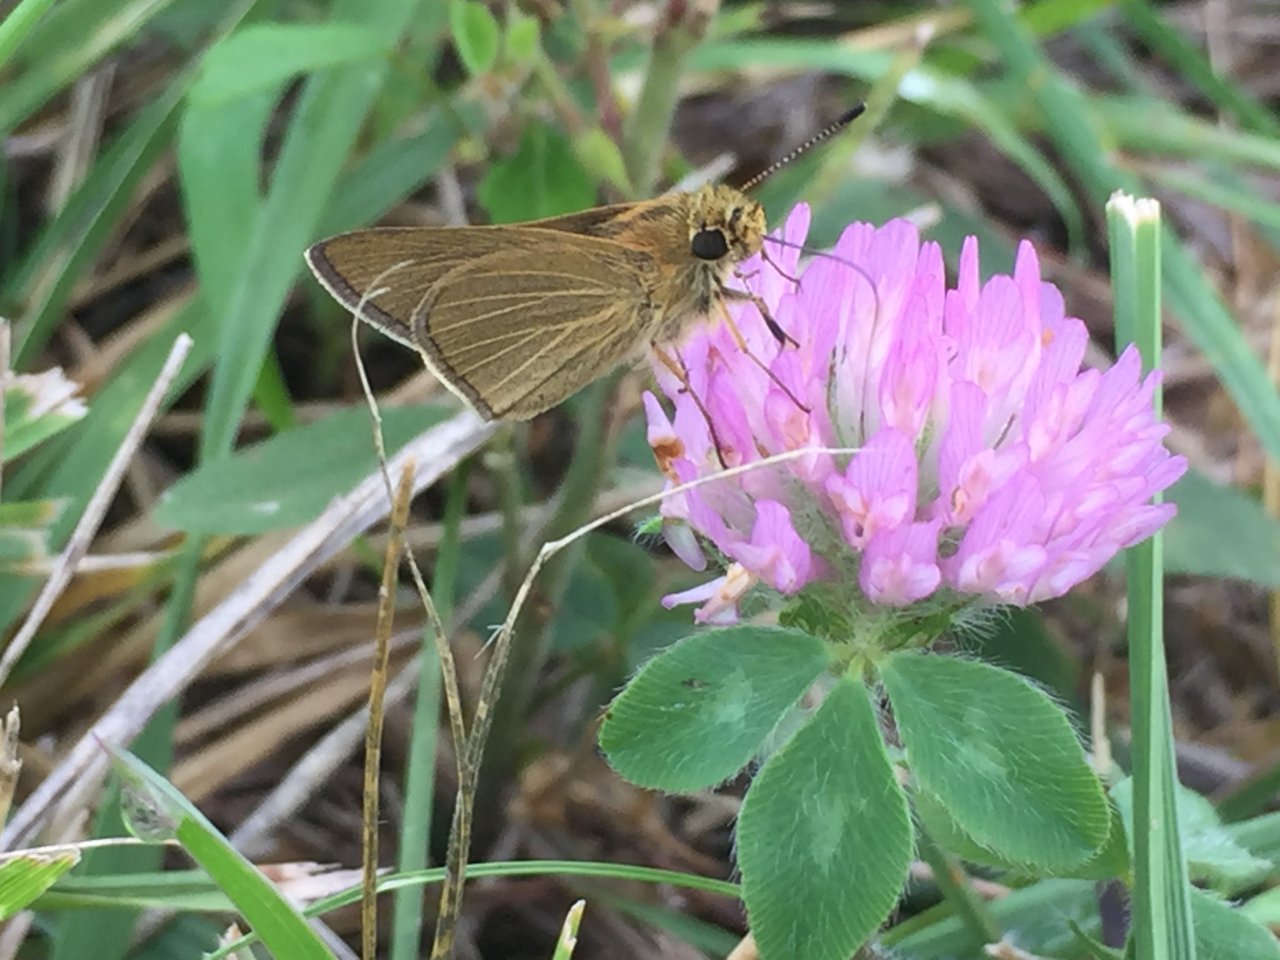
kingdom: Animalia
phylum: Arthropoda
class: Insecta
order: Lepidoptera
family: Hesperiidae
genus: Nastra
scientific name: Nastra lherminier
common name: Swarthy Skipper
